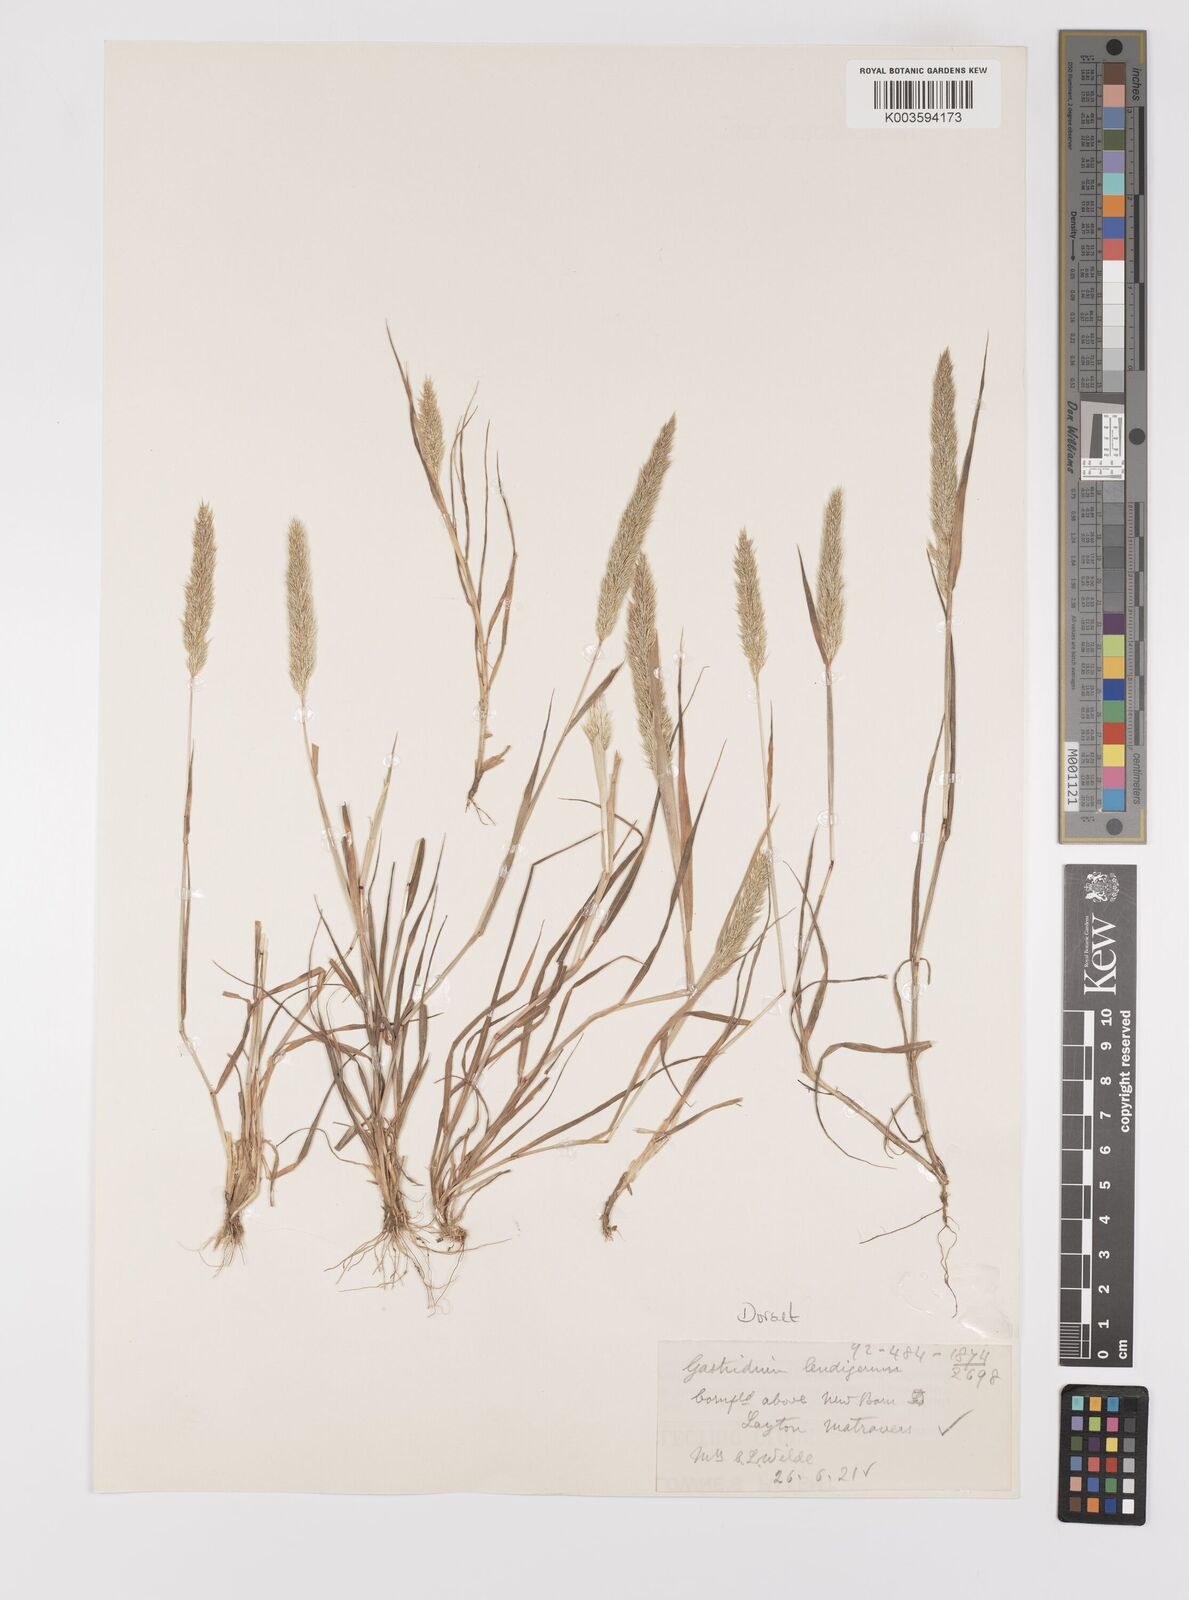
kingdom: Plantae
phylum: Tracheophyta
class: Liliopsida
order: Poales
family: Poaceae
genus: Gastridium
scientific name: Gastridium ventricosum
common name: Nit-grass
